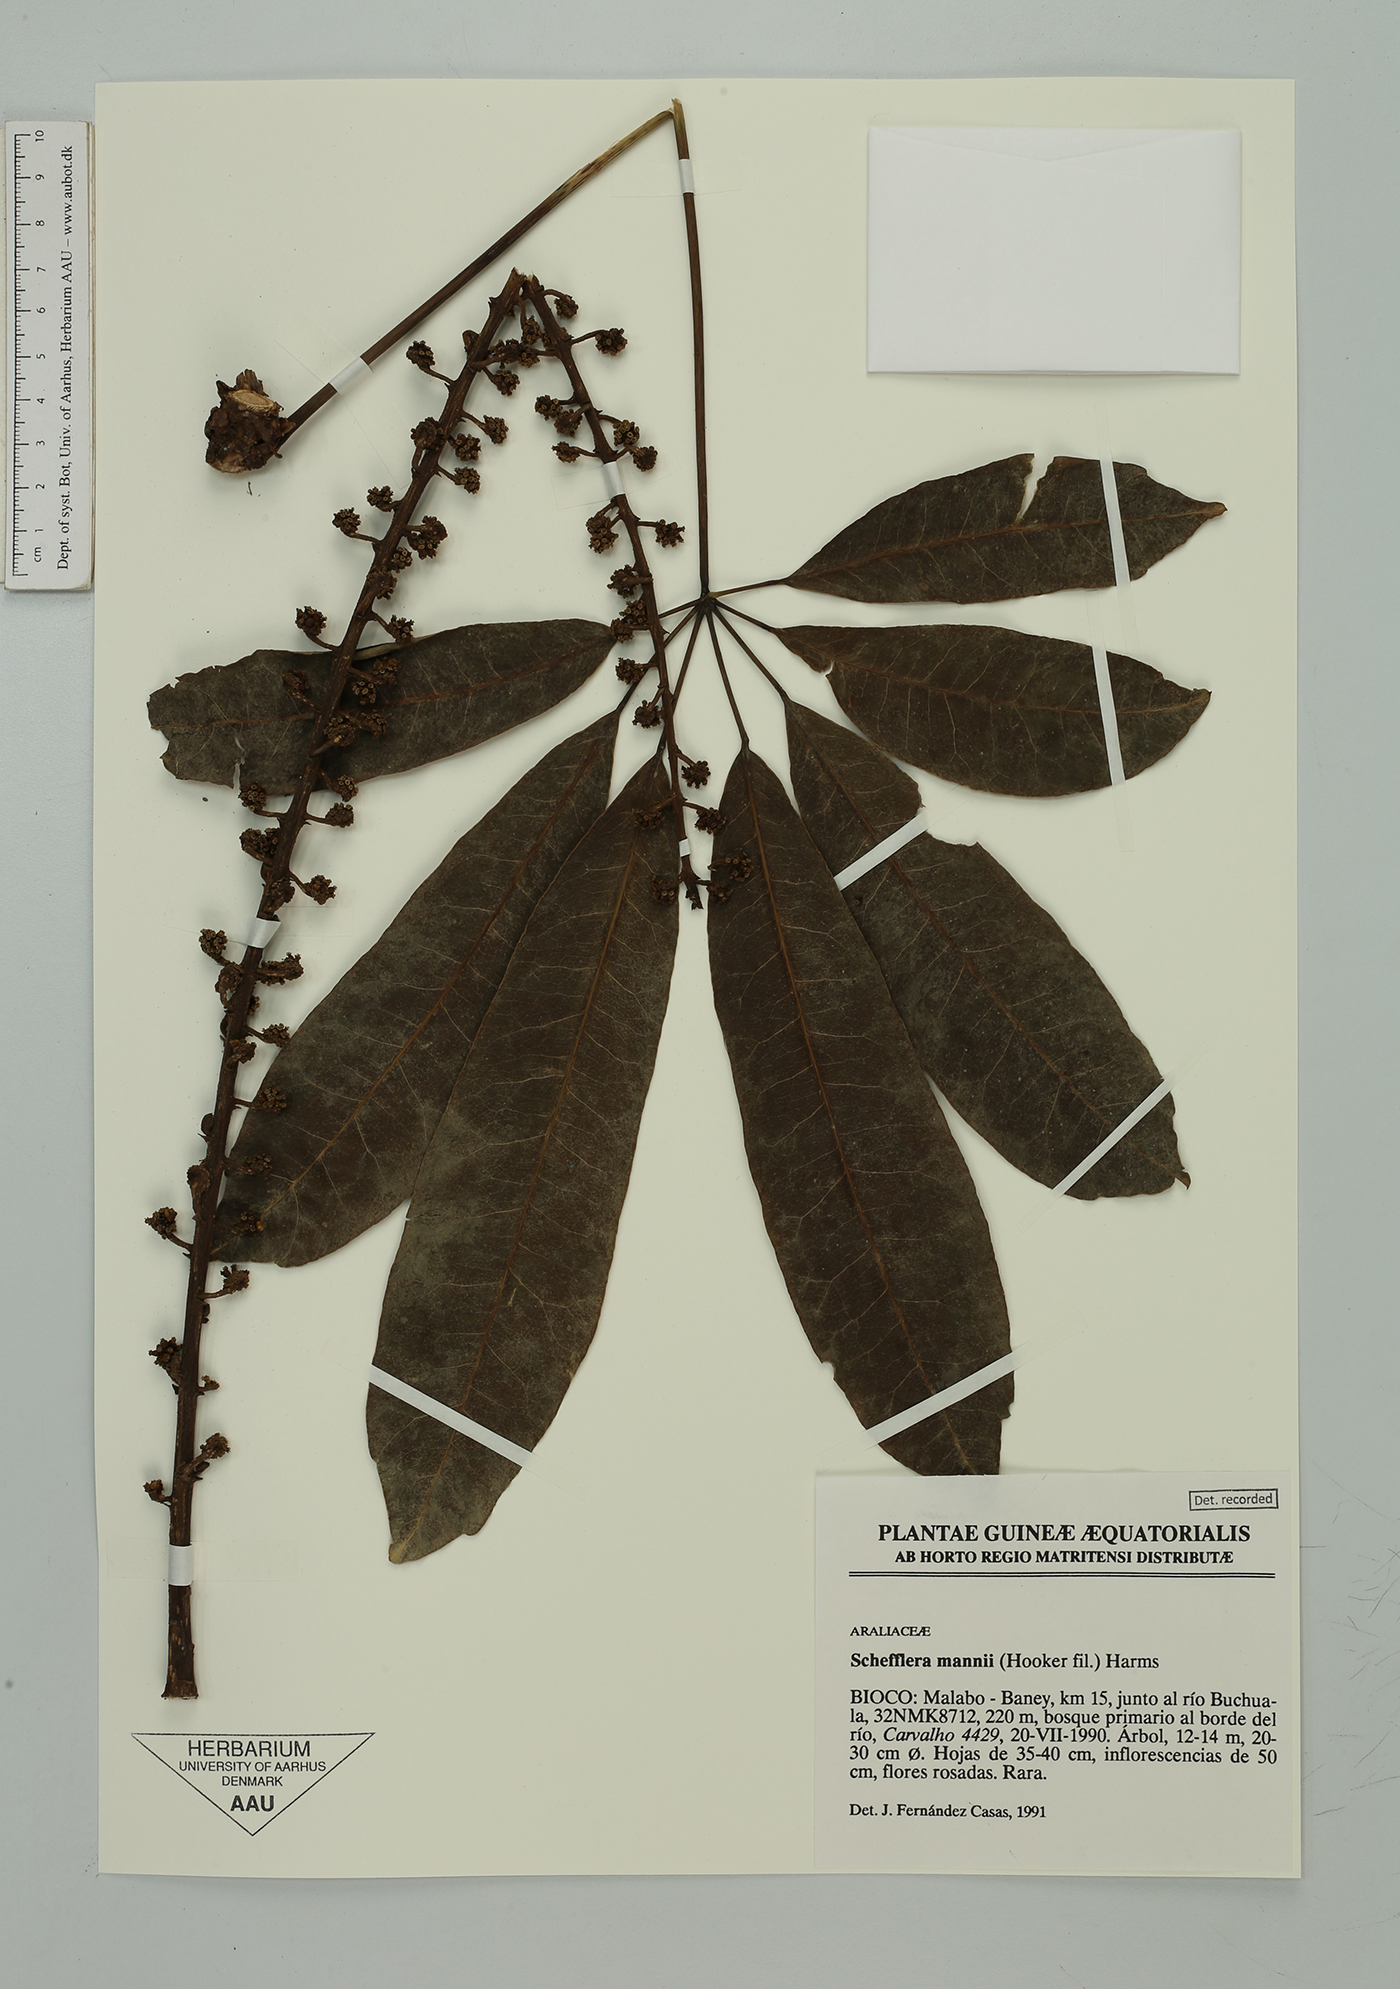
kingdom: Plantae
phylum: Tracheophyta
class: Magnoliopsida
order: Apiales
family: Araliaceae
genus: Astropanax
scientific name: Astropanax mannii
